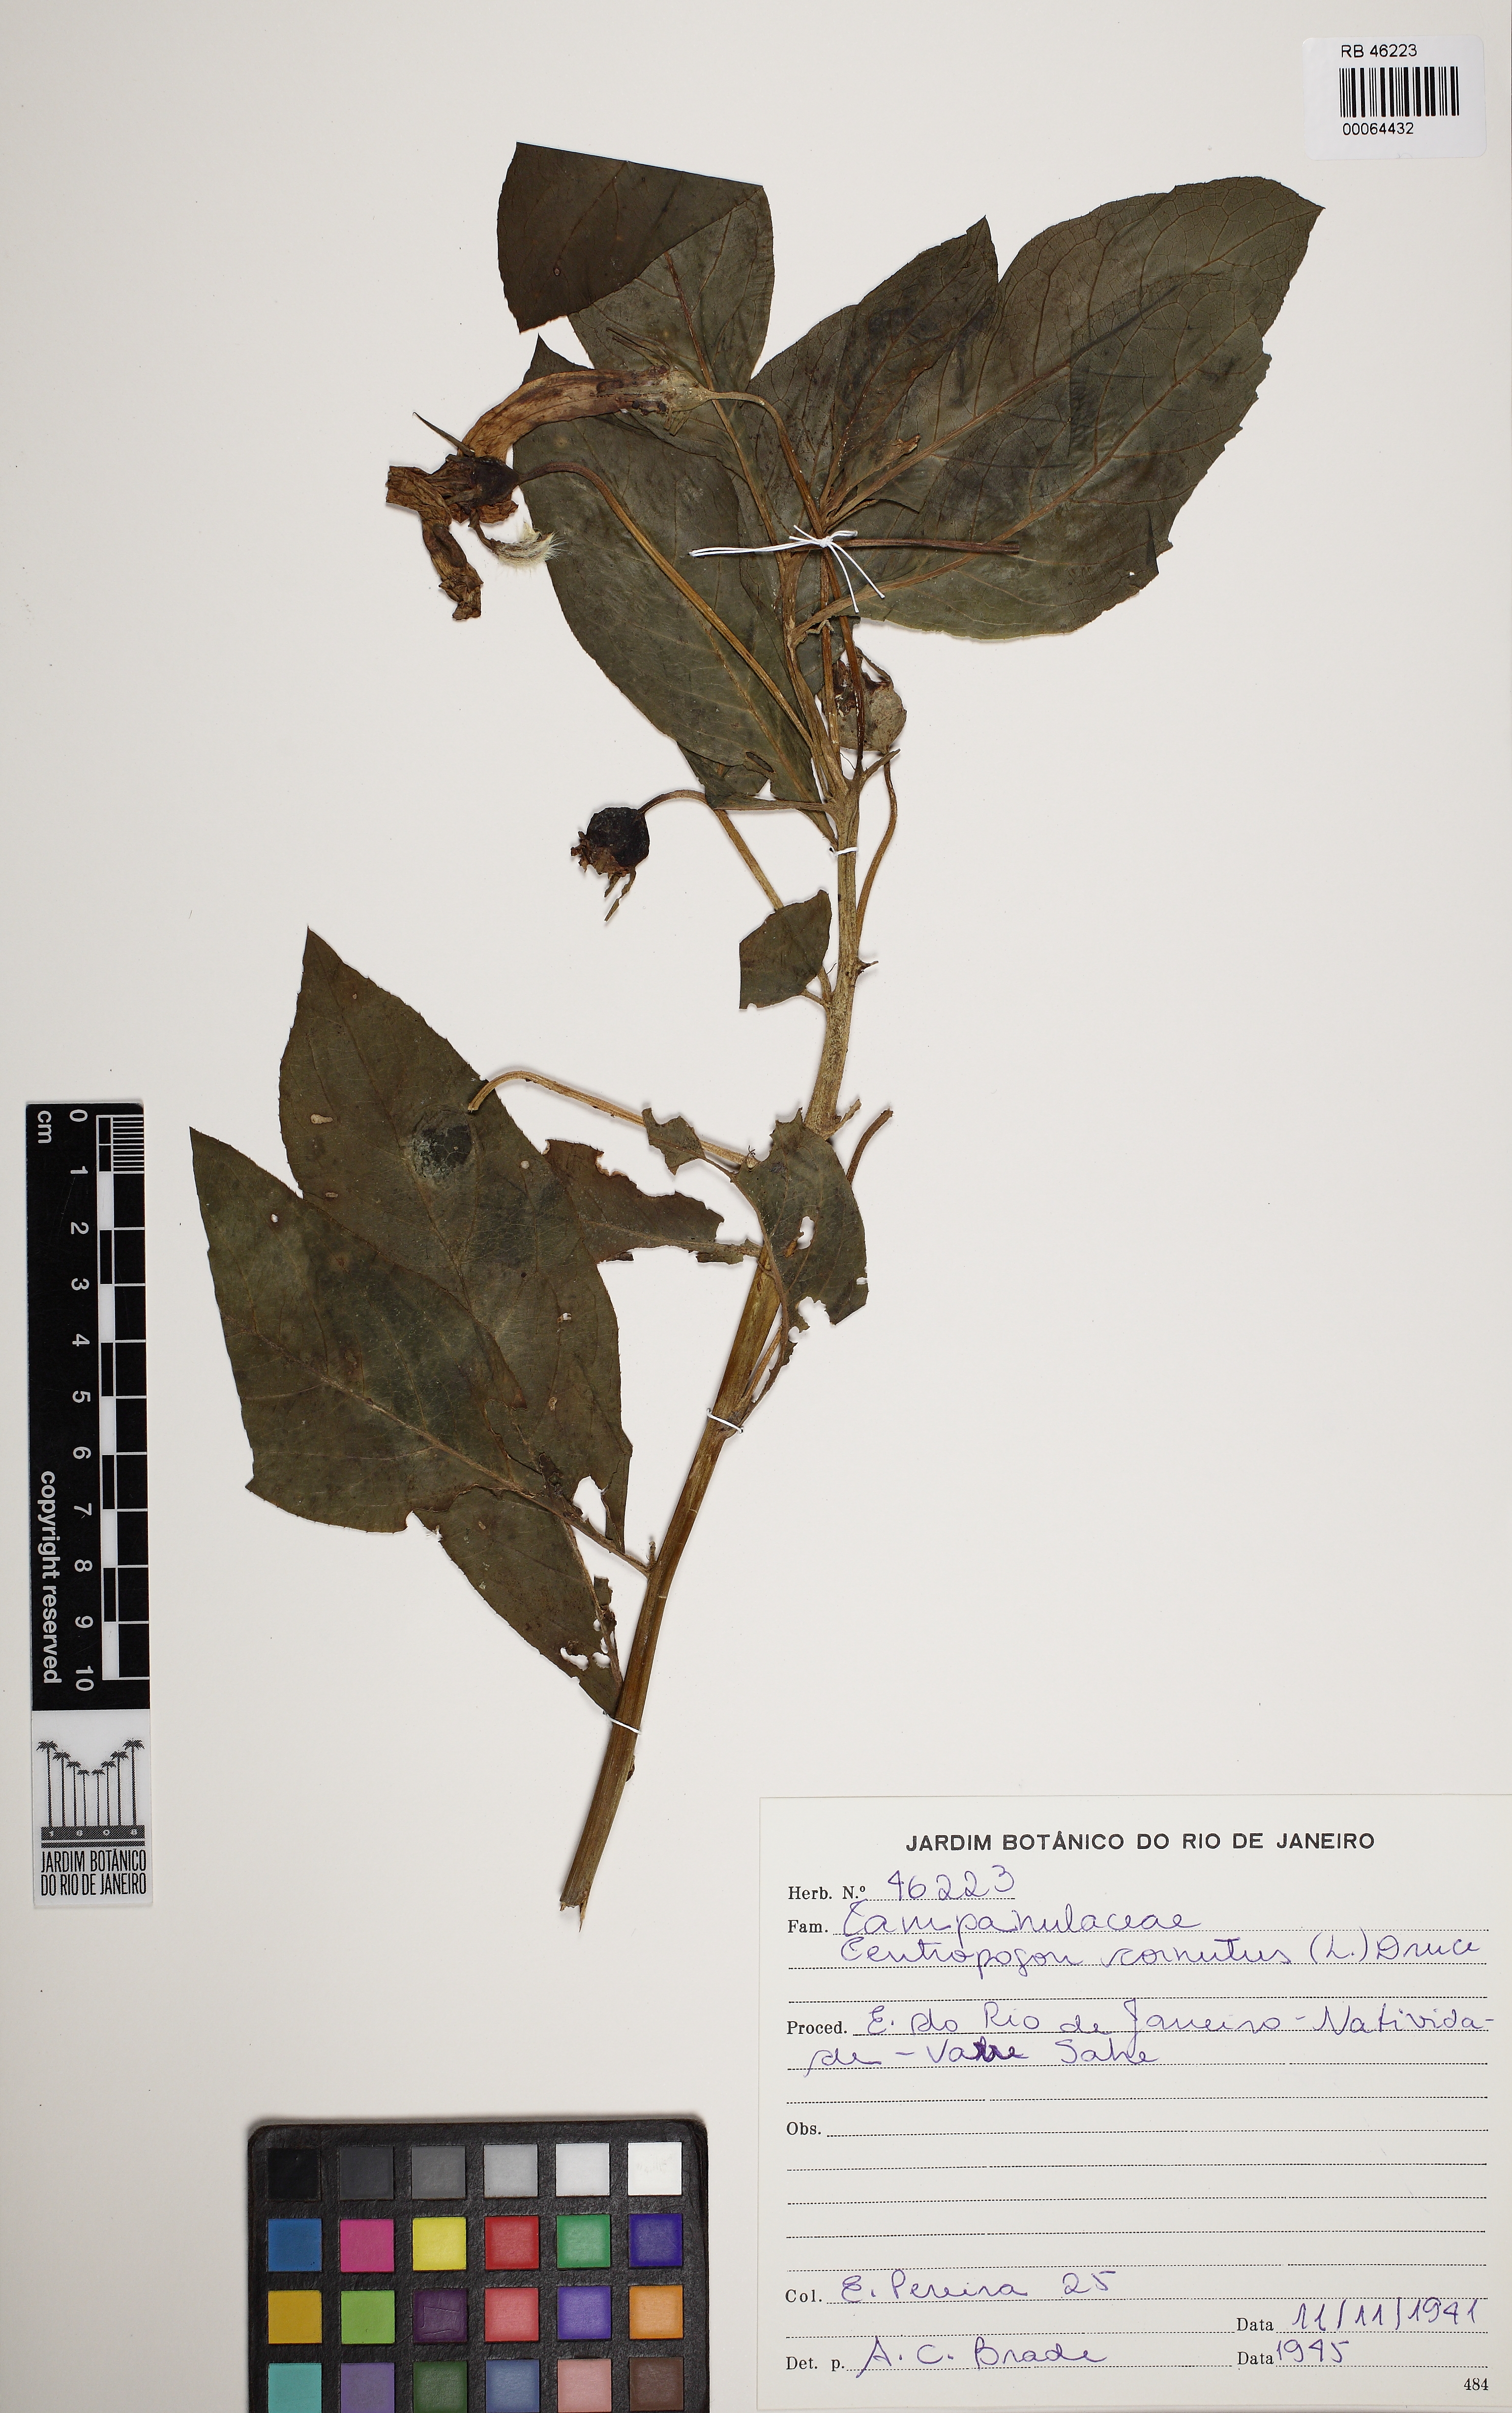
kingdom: Plantae
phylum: Tracheophyta
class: Magnoliopsida
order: Asterales
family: Campanulaceae
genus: Centropogon
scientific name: Centropogon cornutus
